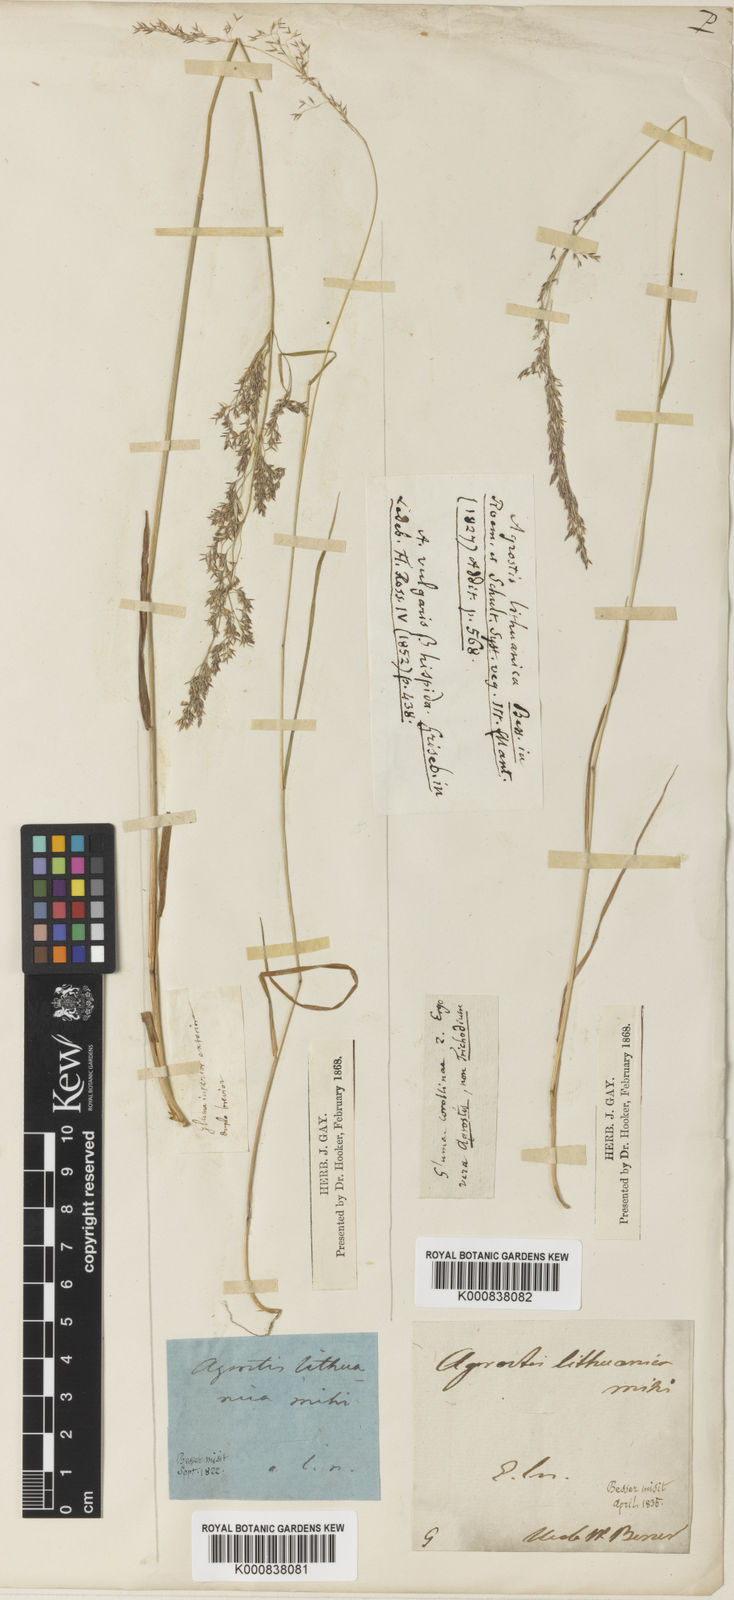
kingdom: Plantae
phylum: Tracheophyta
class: Liliopsida
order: Poales
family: Poaceae
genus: Agrostis
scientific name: Agrostis capillaris
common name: Colonial bentgrass
